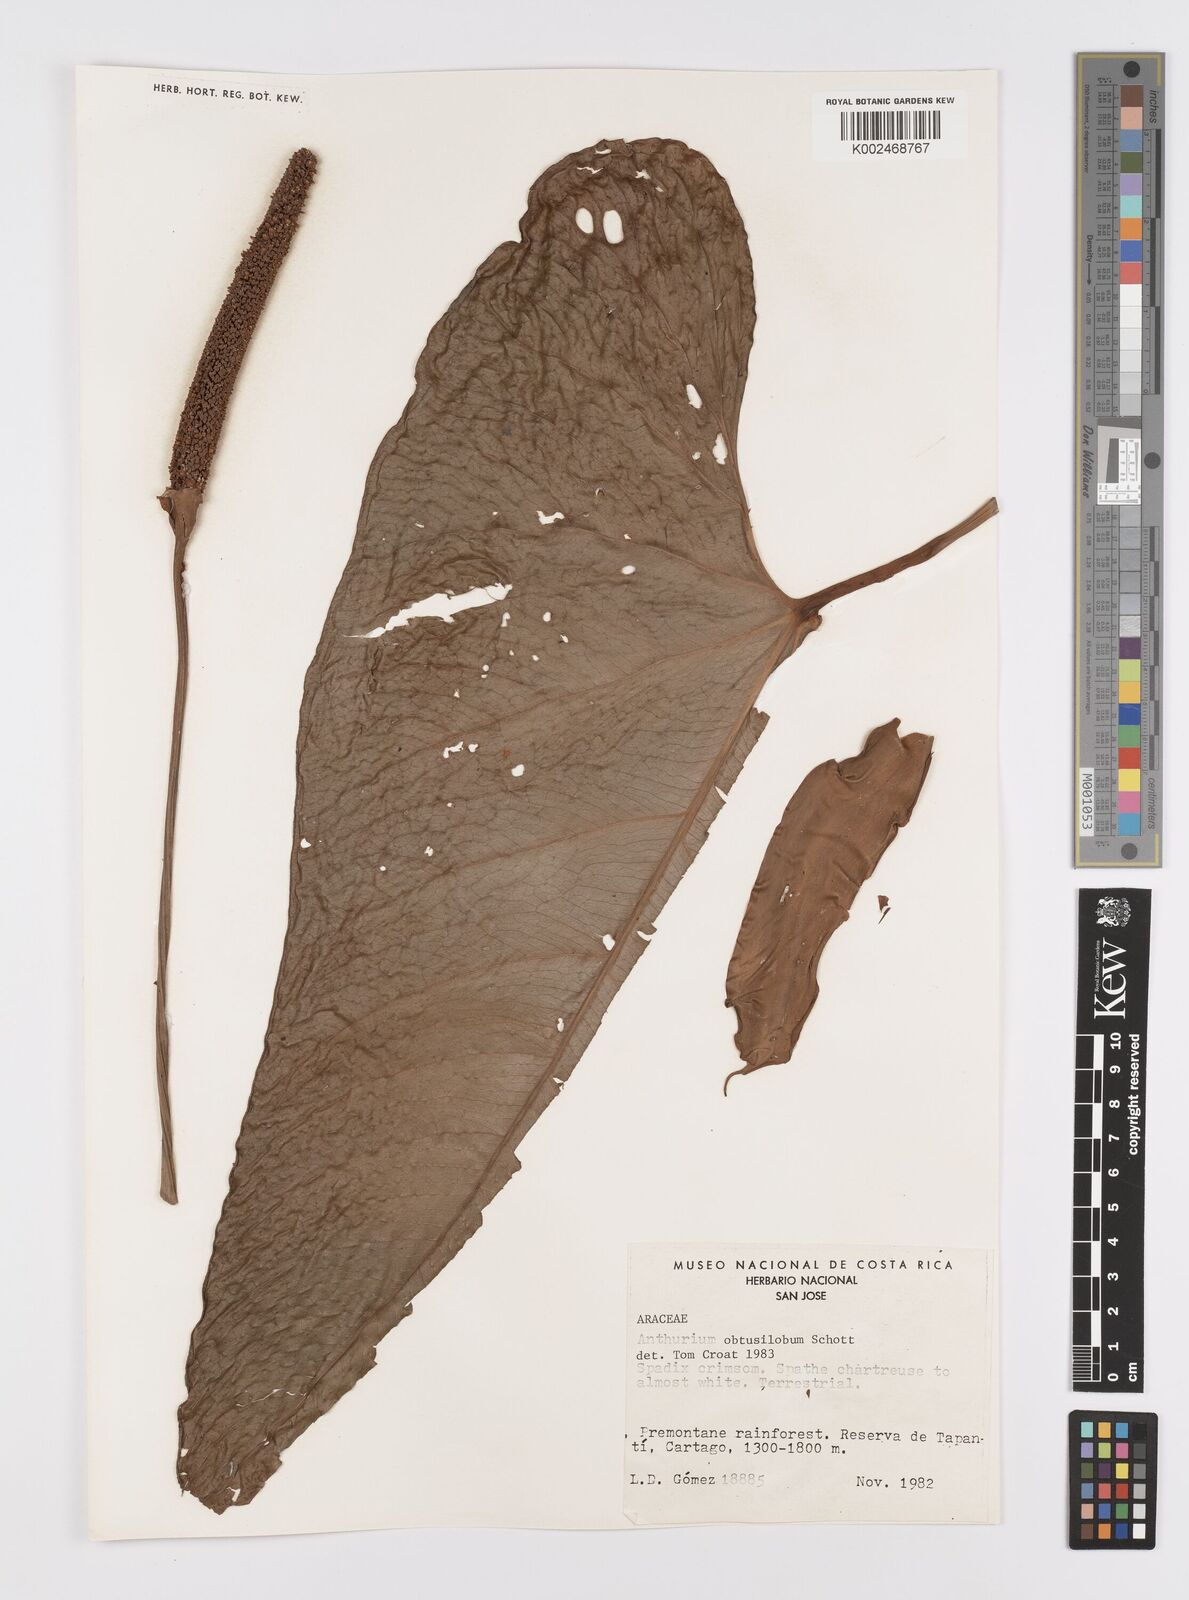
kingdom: Plantae
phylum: Tracheophyta
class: Liliopsida
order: Alismatales
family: Araceae
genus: Anthurium
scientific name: Anthurium obtusilobum
